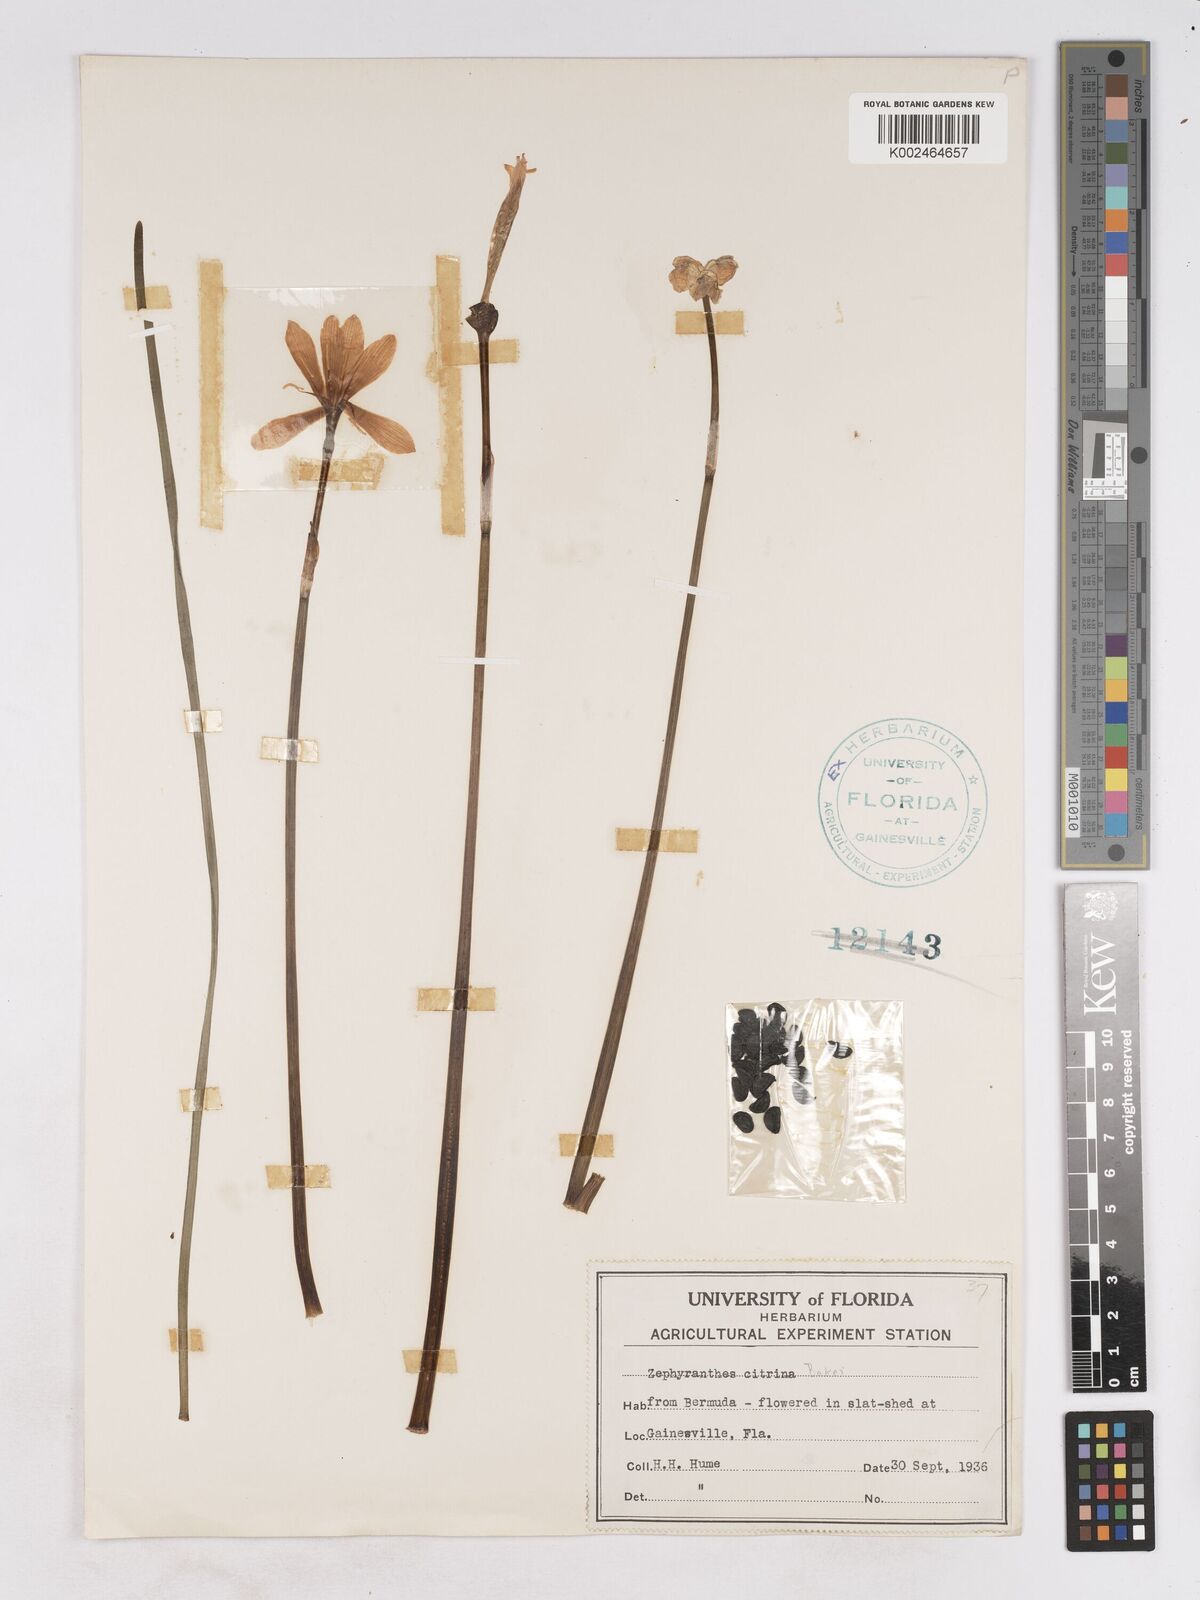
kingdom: Plantae
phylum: Tracheophyta
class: Liliopsida
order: Asparagales
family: Amaryllidaceae
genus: Zephyranthes
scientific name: Zephyranthes citrina
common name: Citron zephyrlily
